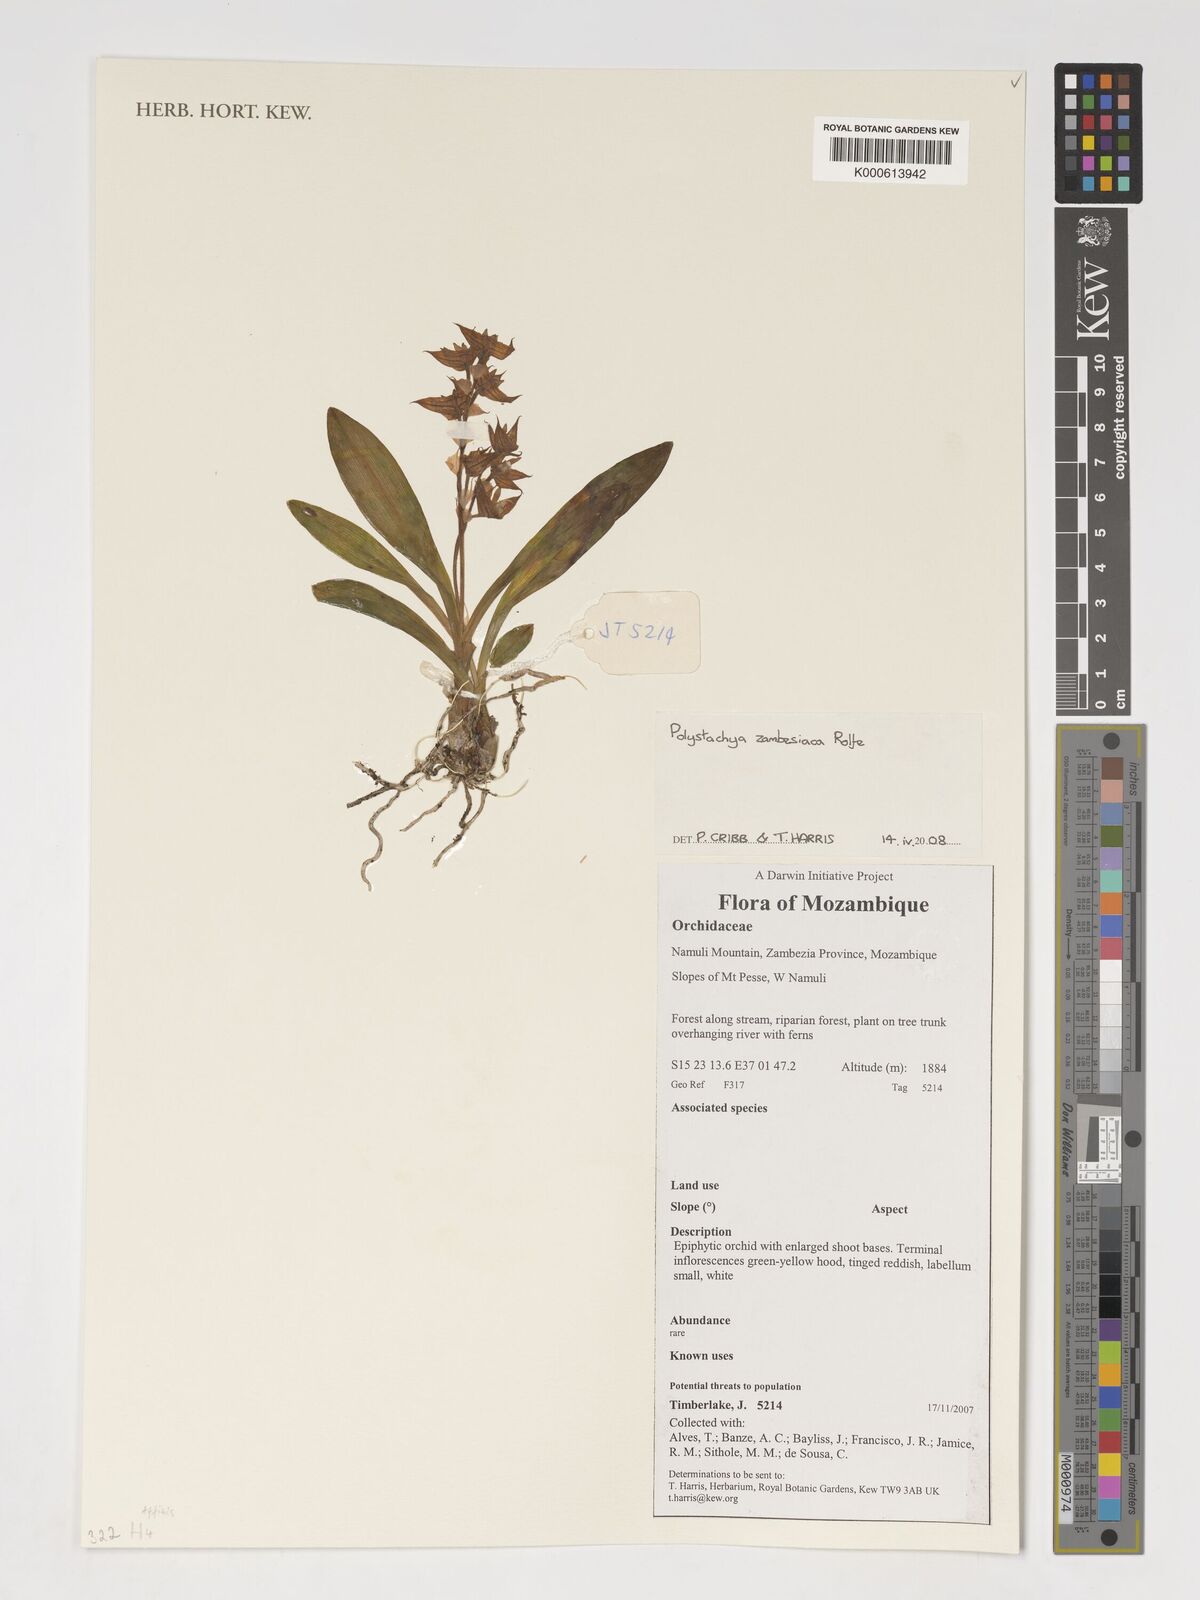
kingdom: Plantae
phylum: Tracheophyta
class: Liliopsida
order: Asparagales
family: Orchidaceae
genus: Polystachya
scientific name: Polystachya zambesiaca
